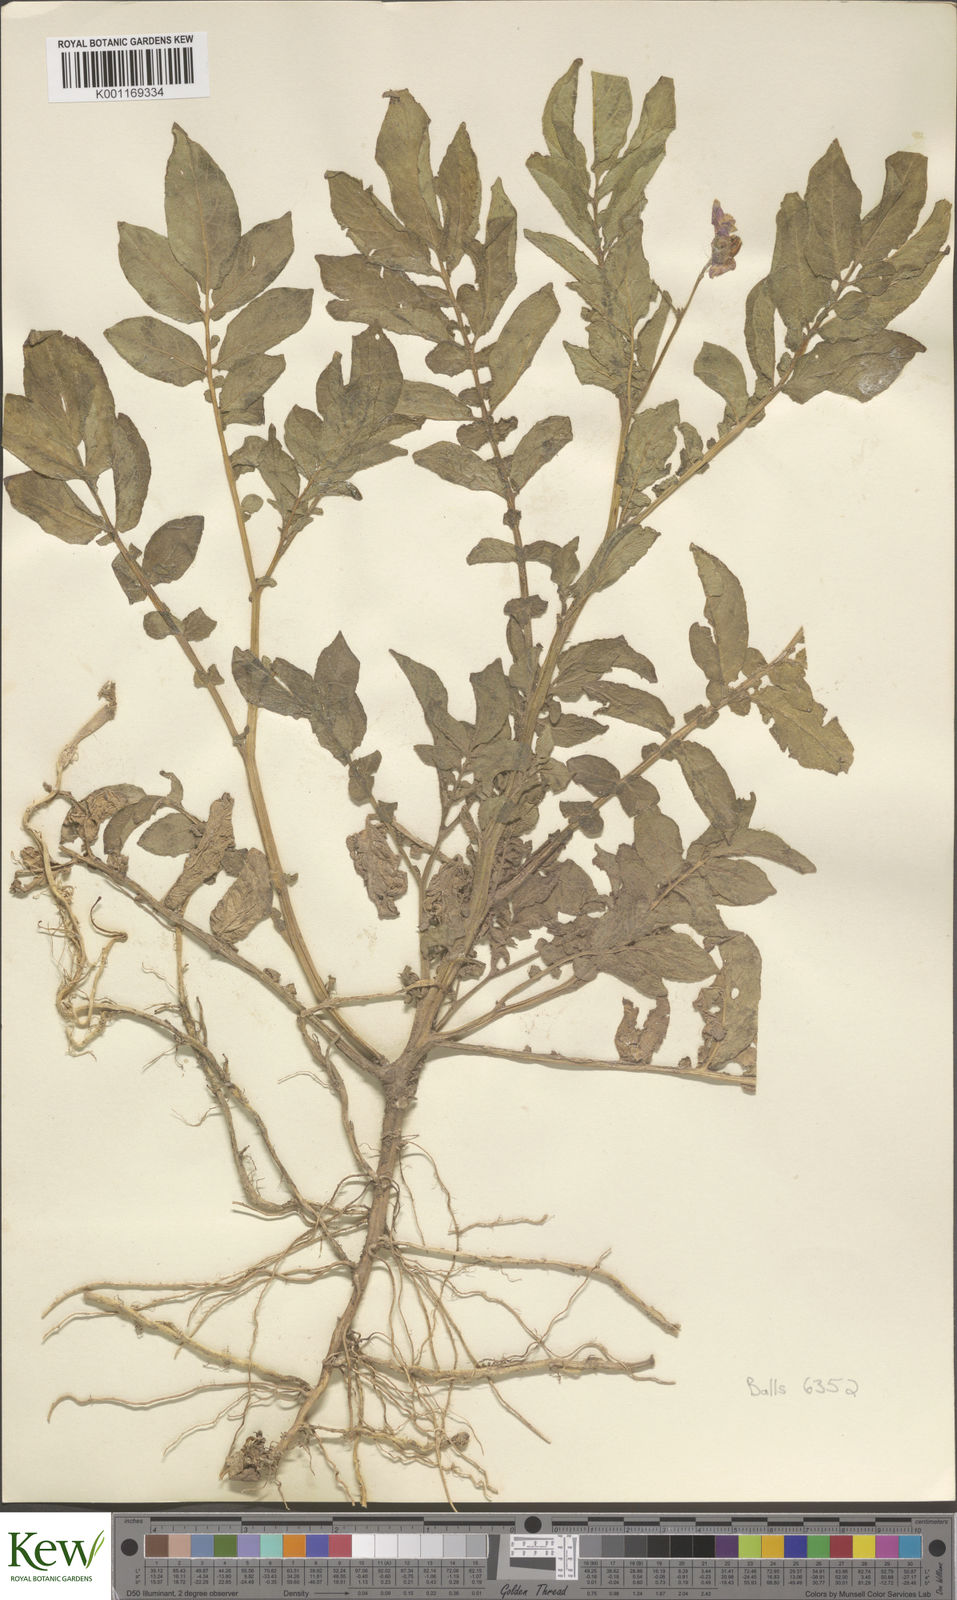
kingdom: Plantae
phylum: Tracheophyta
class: Magnoliopsida
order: Solanales
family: Solanaceae
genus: Solanum
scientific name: Solanum chaucha
